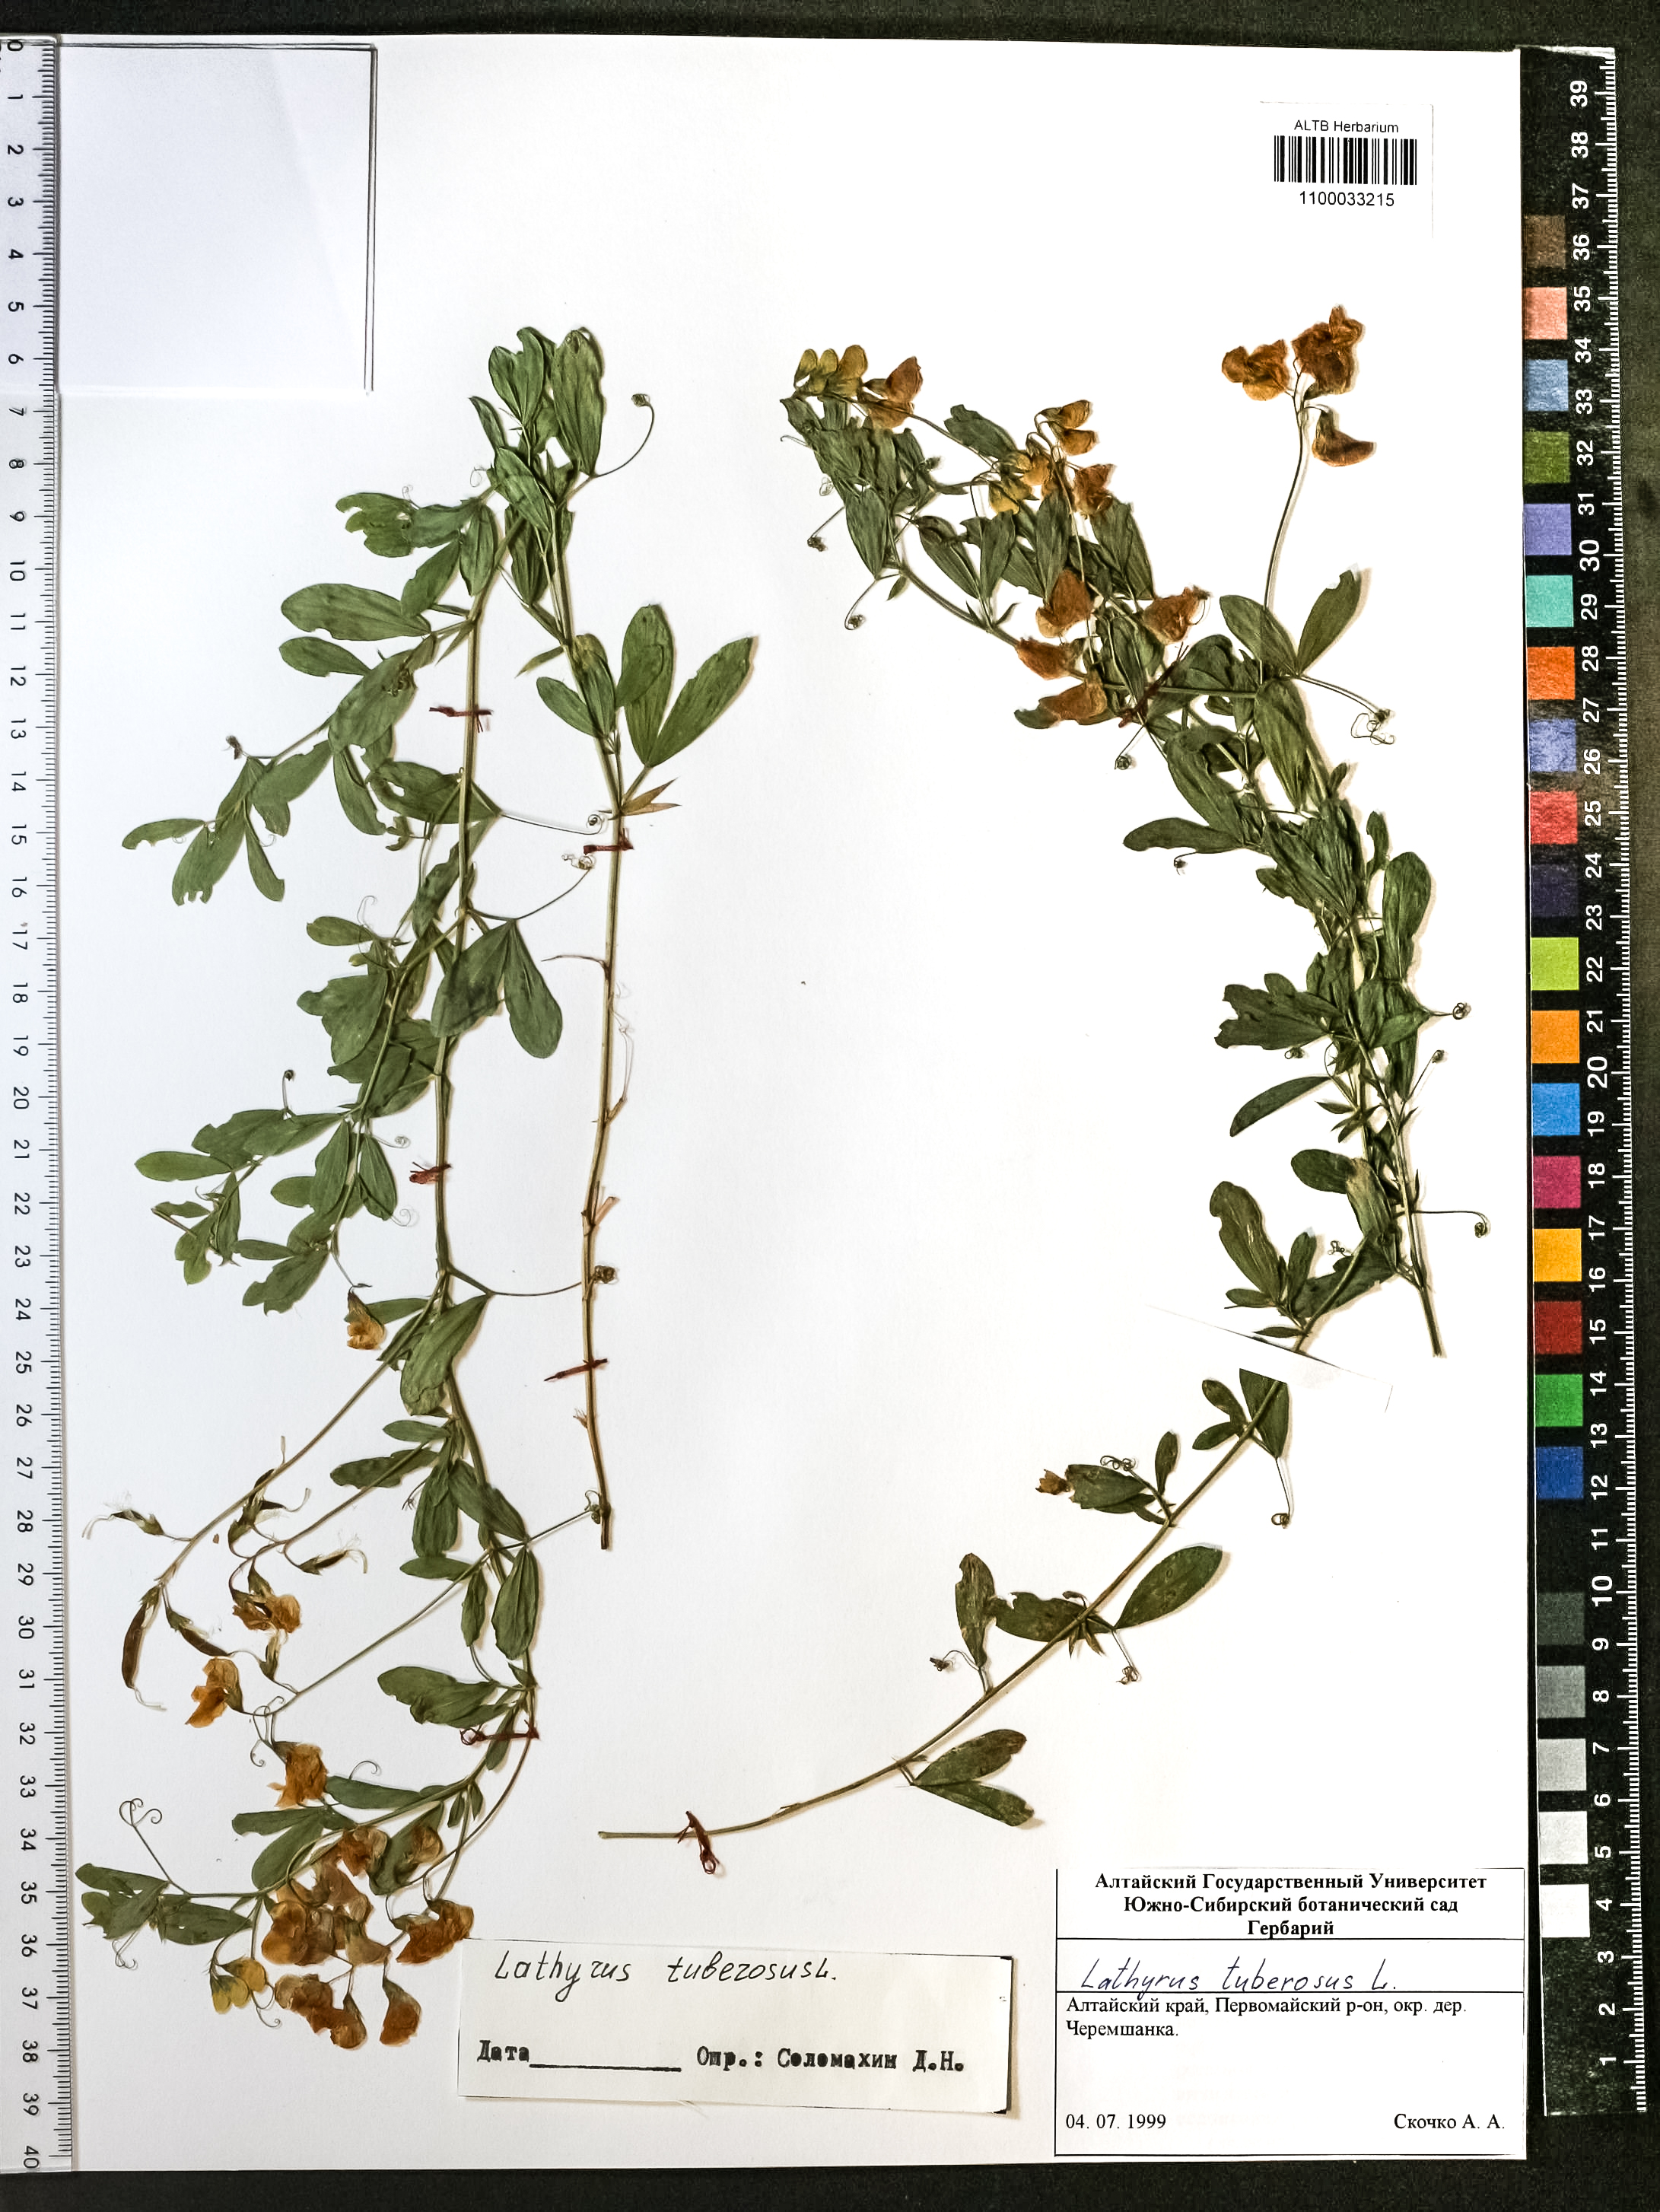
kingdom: Plantae
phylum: Tracheophyta
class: Magnoliopsida
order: Fabales
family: Fabaceae
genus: Lathyrus
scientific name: Lathyrus tuberosus
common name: Tuberous pea
